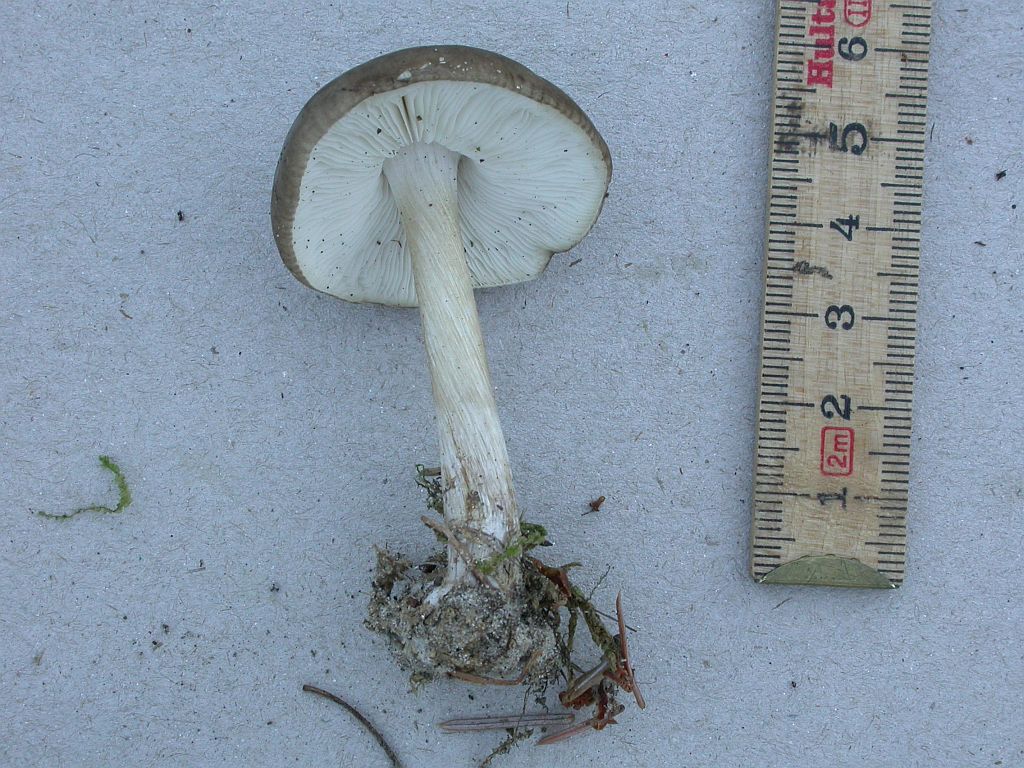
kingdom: Fungi
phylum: Basidiomycota
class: Agaricomycetes
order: Agaricales
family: Tricholomataceae
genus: Melanoleuca
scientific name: Melanoleuca polioleuca
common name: hvidbladet munkehat
